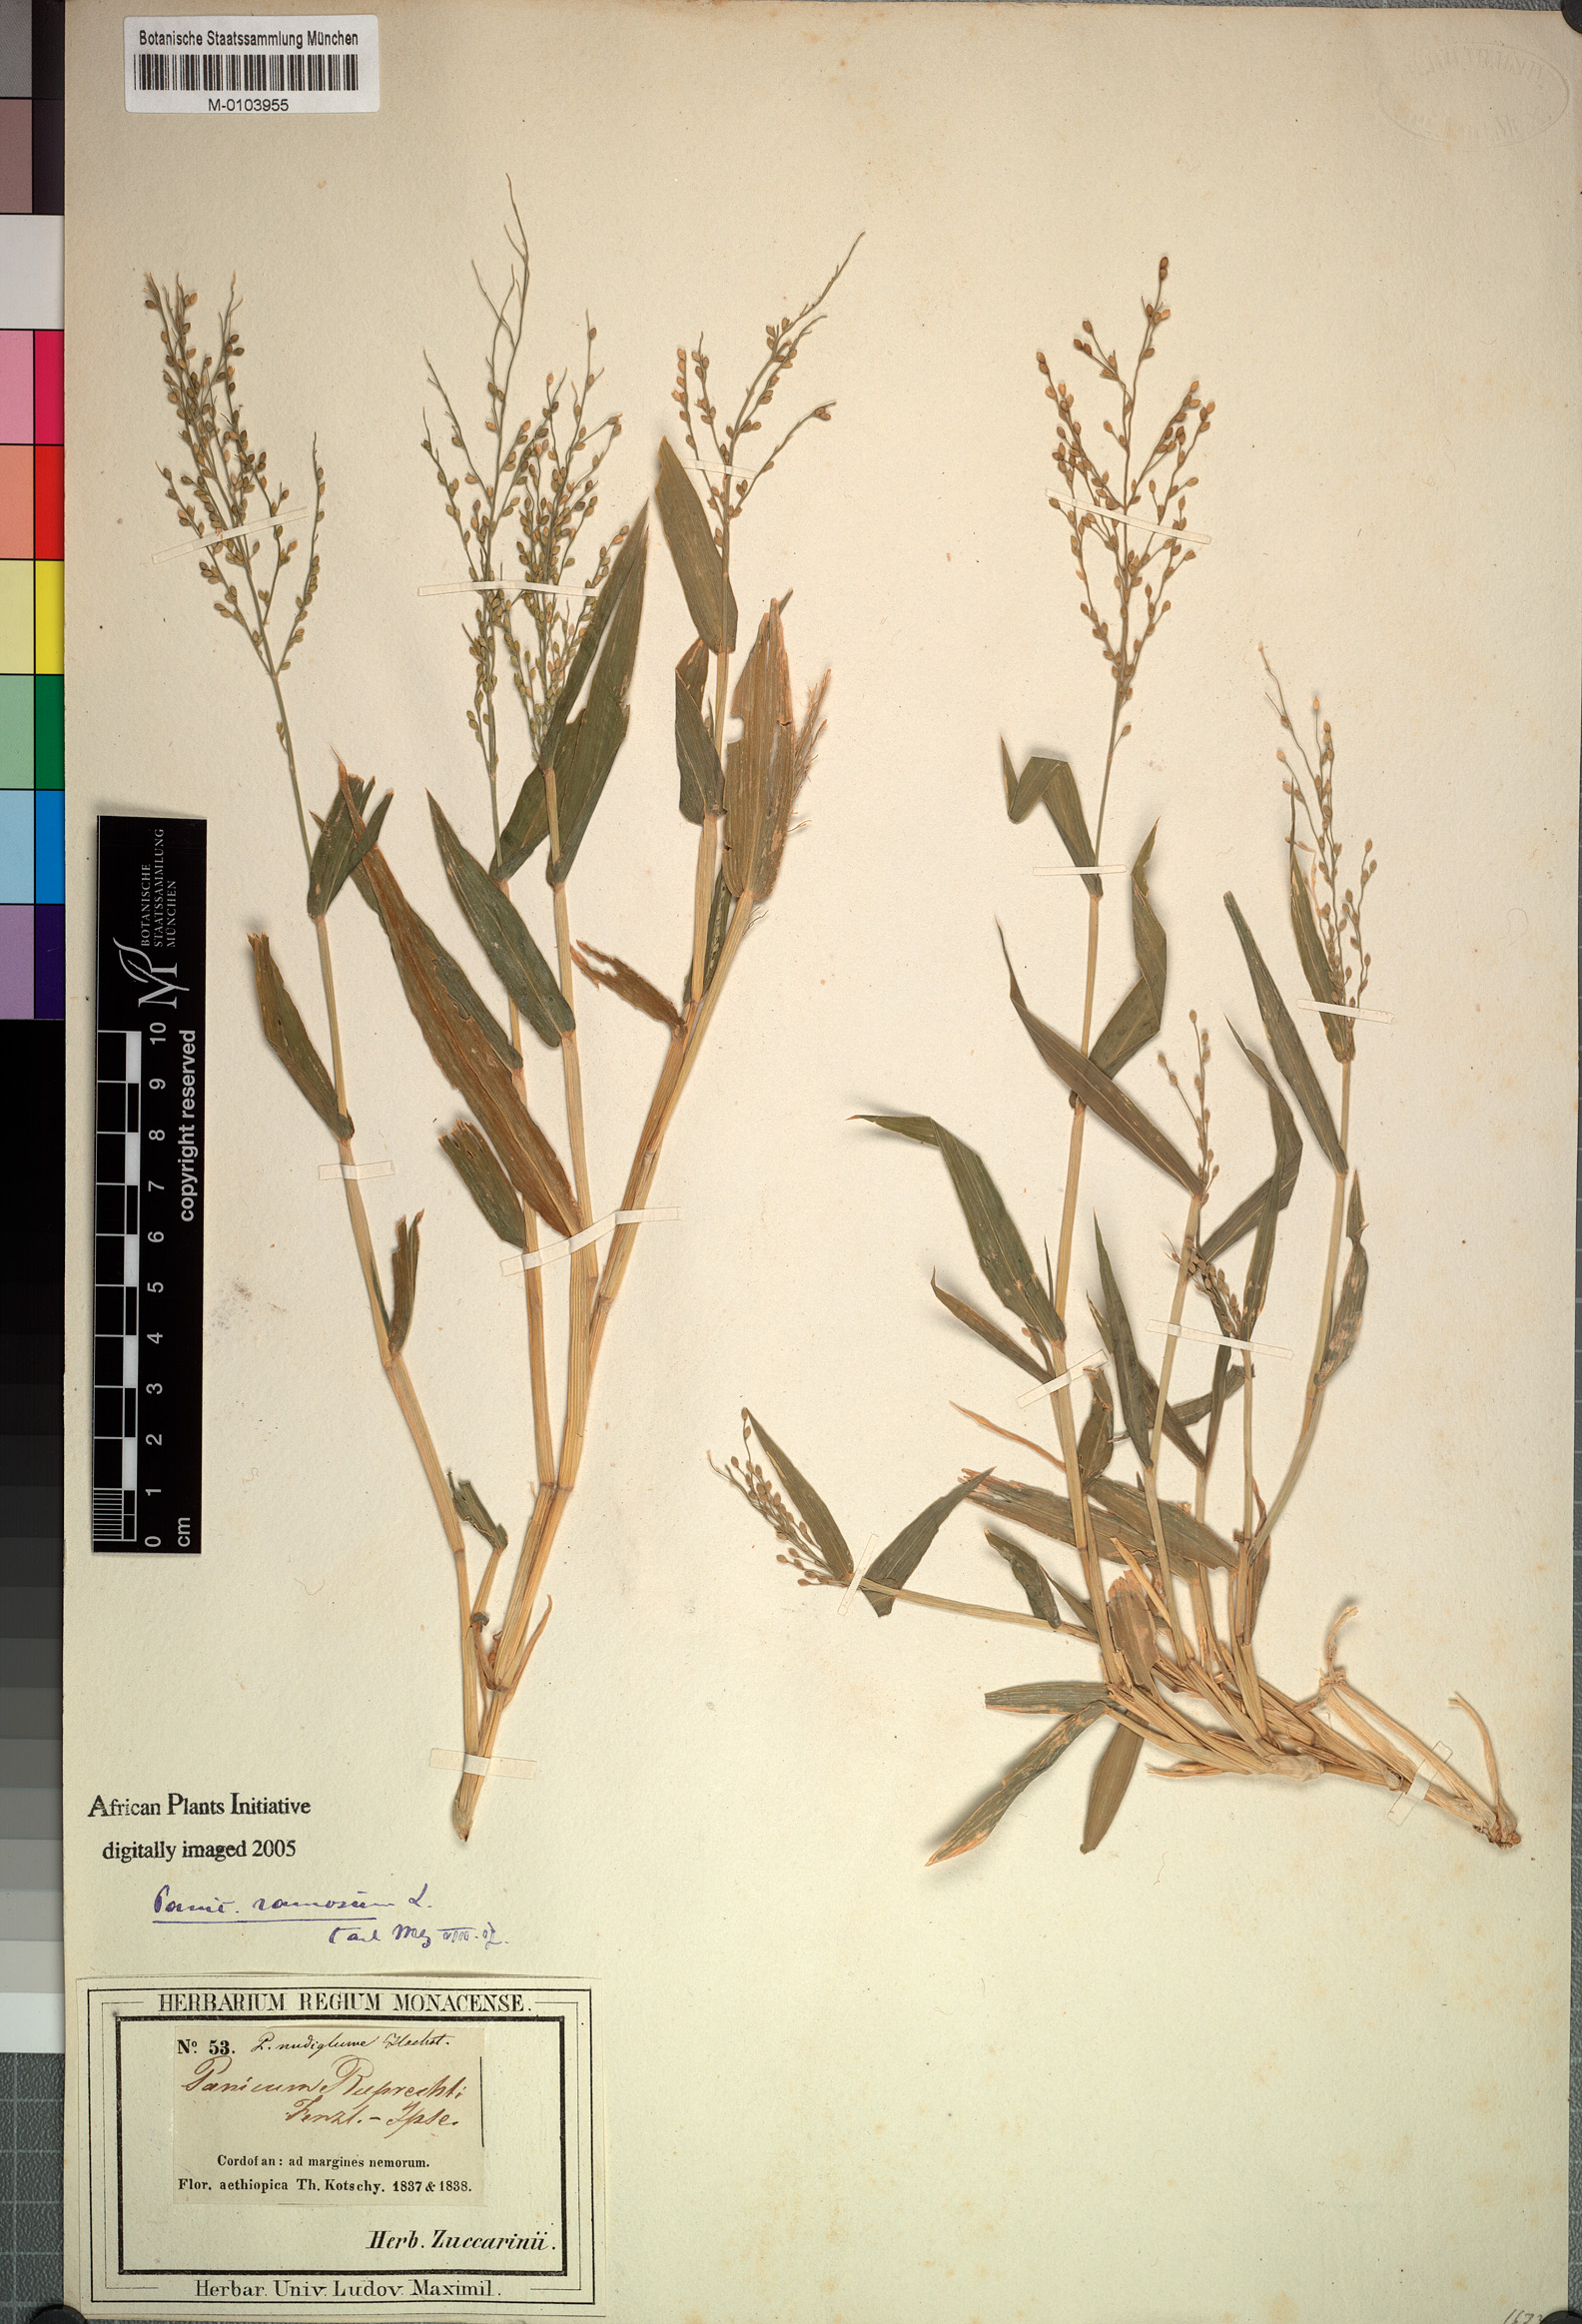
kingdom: Plantae
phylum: Tracheophyta
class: Liliopsida
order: Poales
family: Poaceae
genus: Urochloa
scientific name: Urochloa deflexa
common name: Guinea millet
